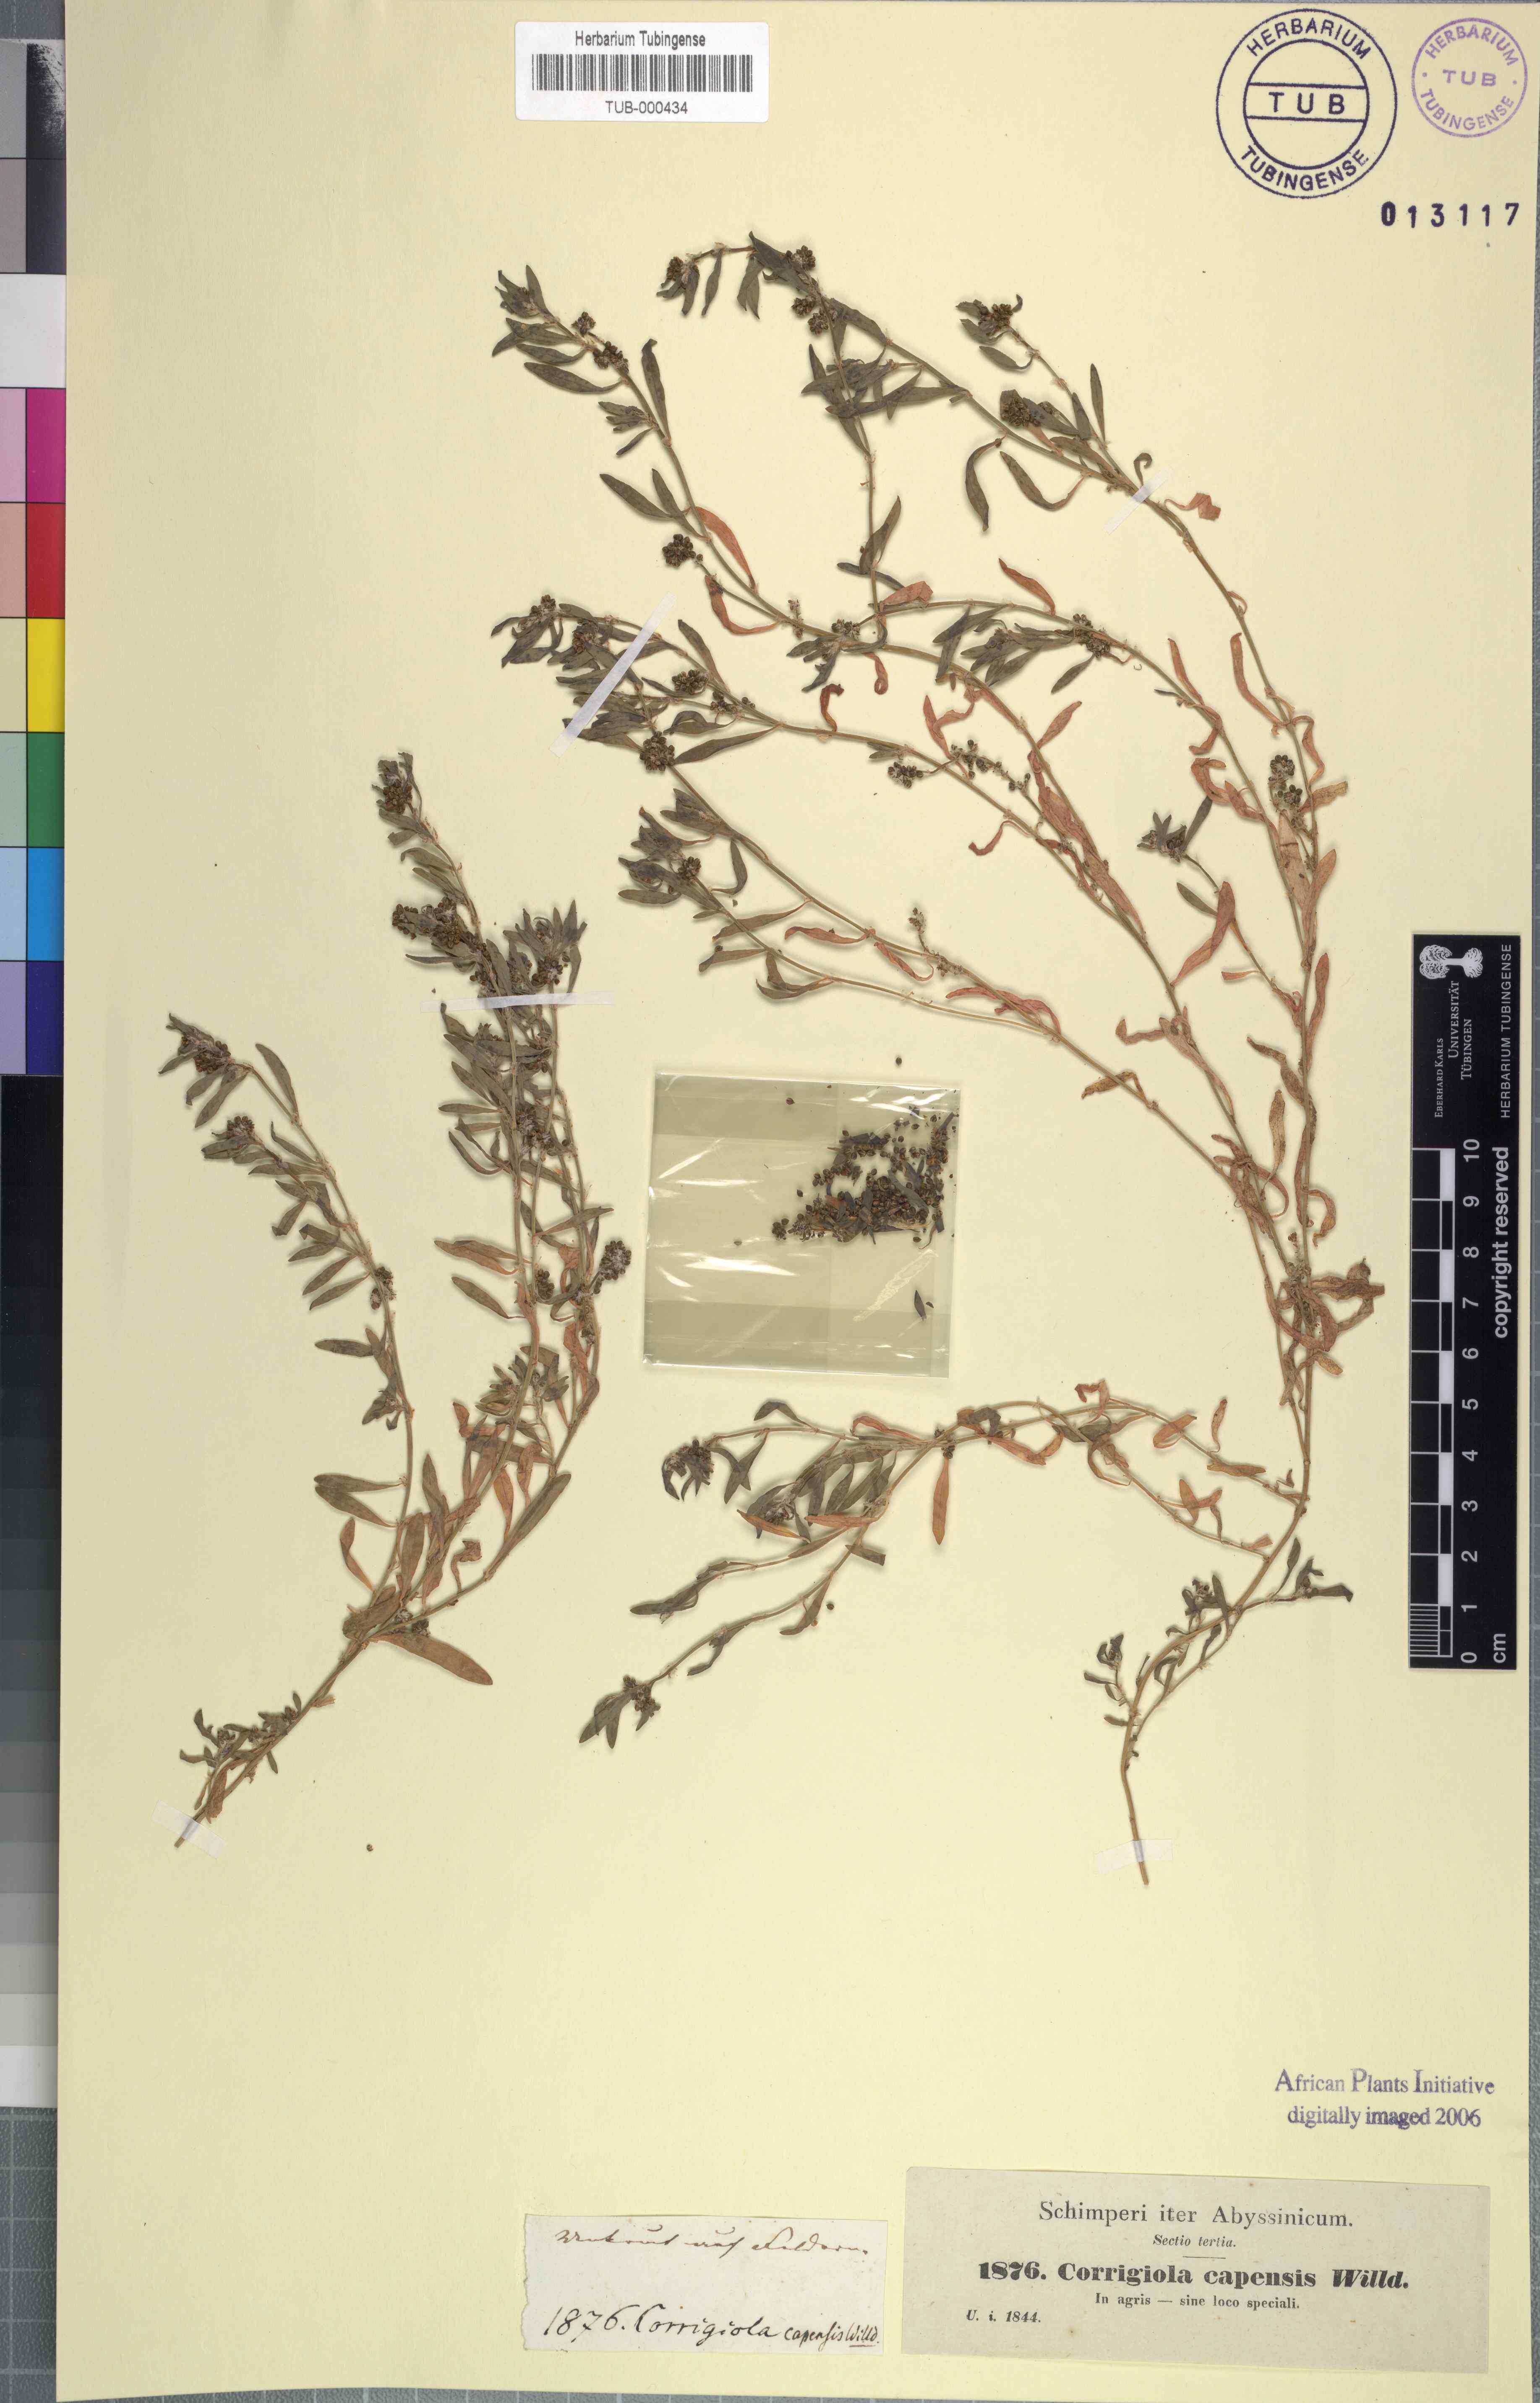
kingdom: Plantae
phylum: Tracheophyta
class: Magnoliopsida
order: Caryophyllales
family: Caryophyllaceae
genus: Corrigiola
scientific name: Corrigiola capensis
